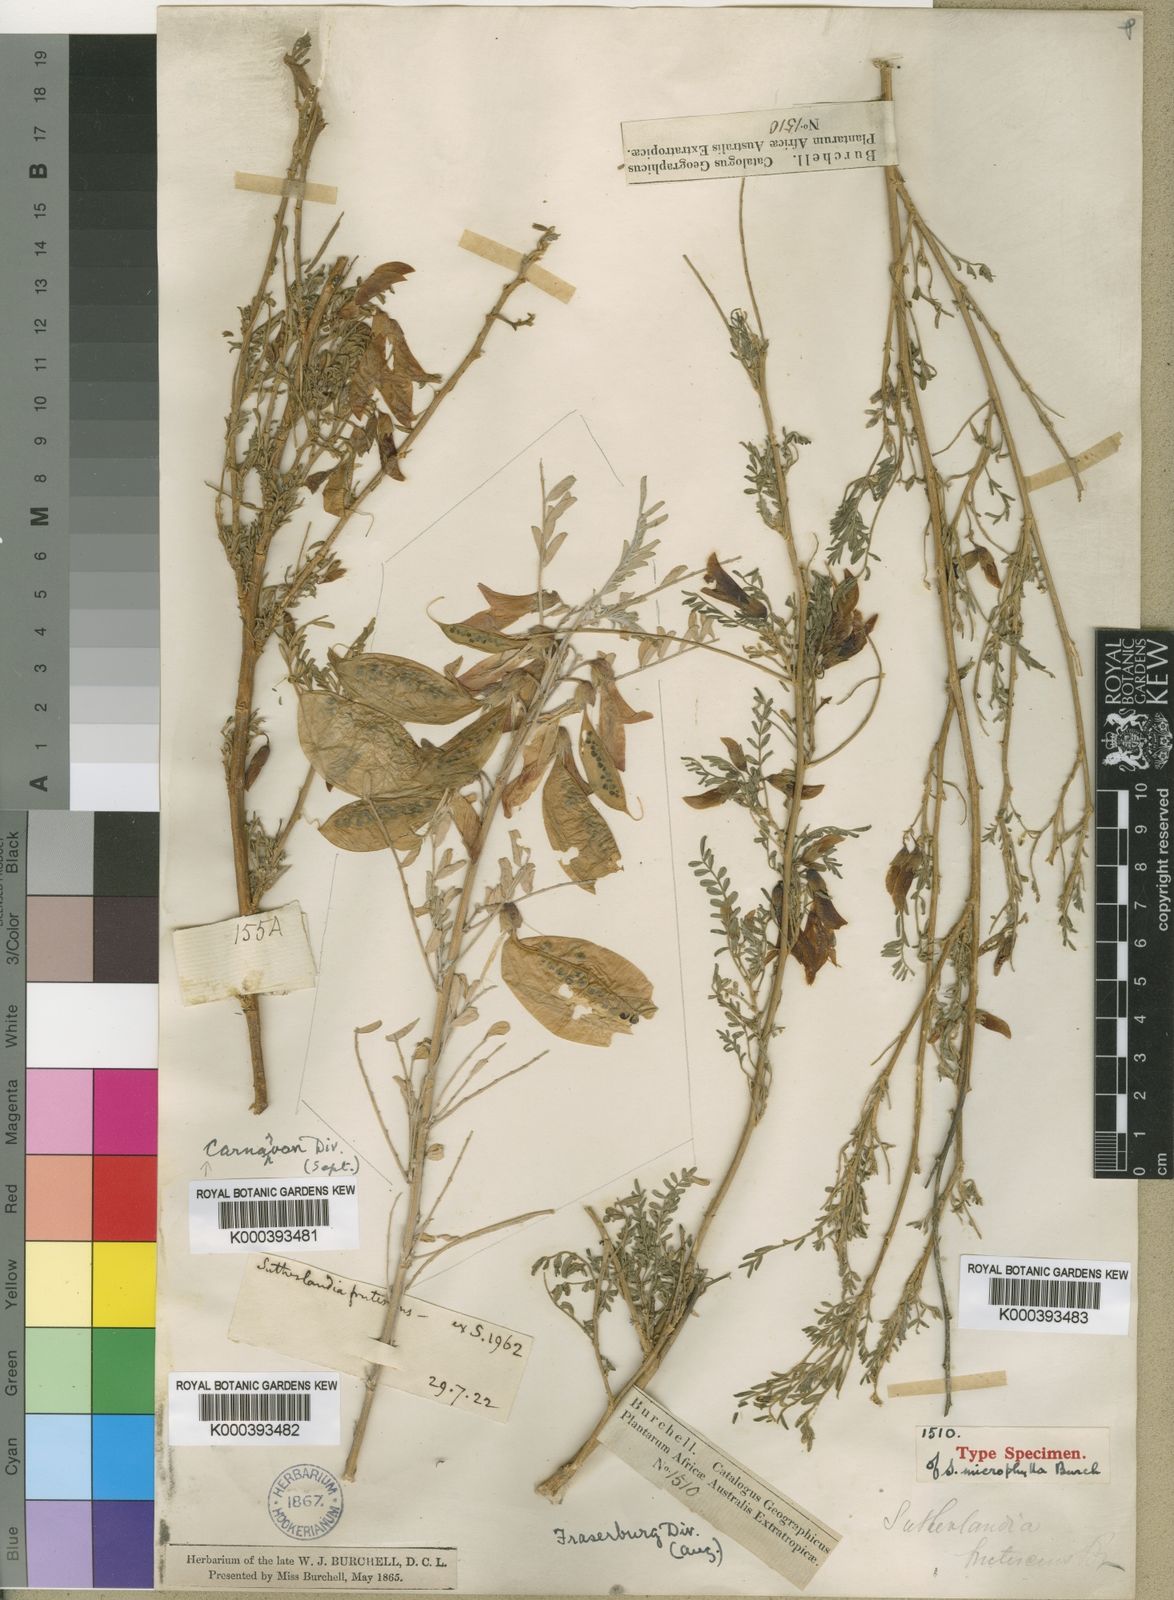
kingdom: Plantae
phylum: Tracheophyta
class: Magnoliopsida
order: Fabales
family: Fabaceae
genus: Lessertia
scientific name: Lessertia frutescens
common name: Balloon-pea
